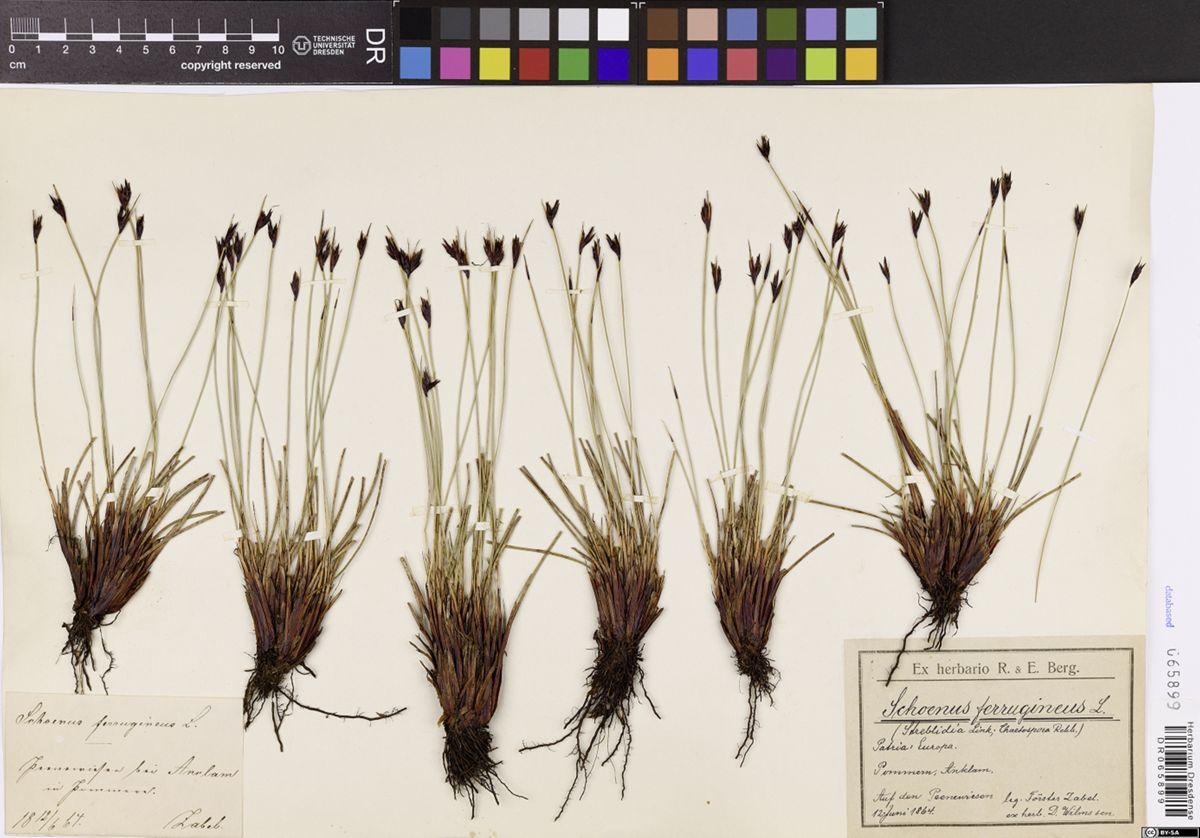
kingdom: Plantae
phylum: Tracheophyta
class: Liliopsida
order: Poales
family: Cyperaceae
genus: Schoenus
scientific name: Schoenus ferrugineus
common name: Brown bog-rush
